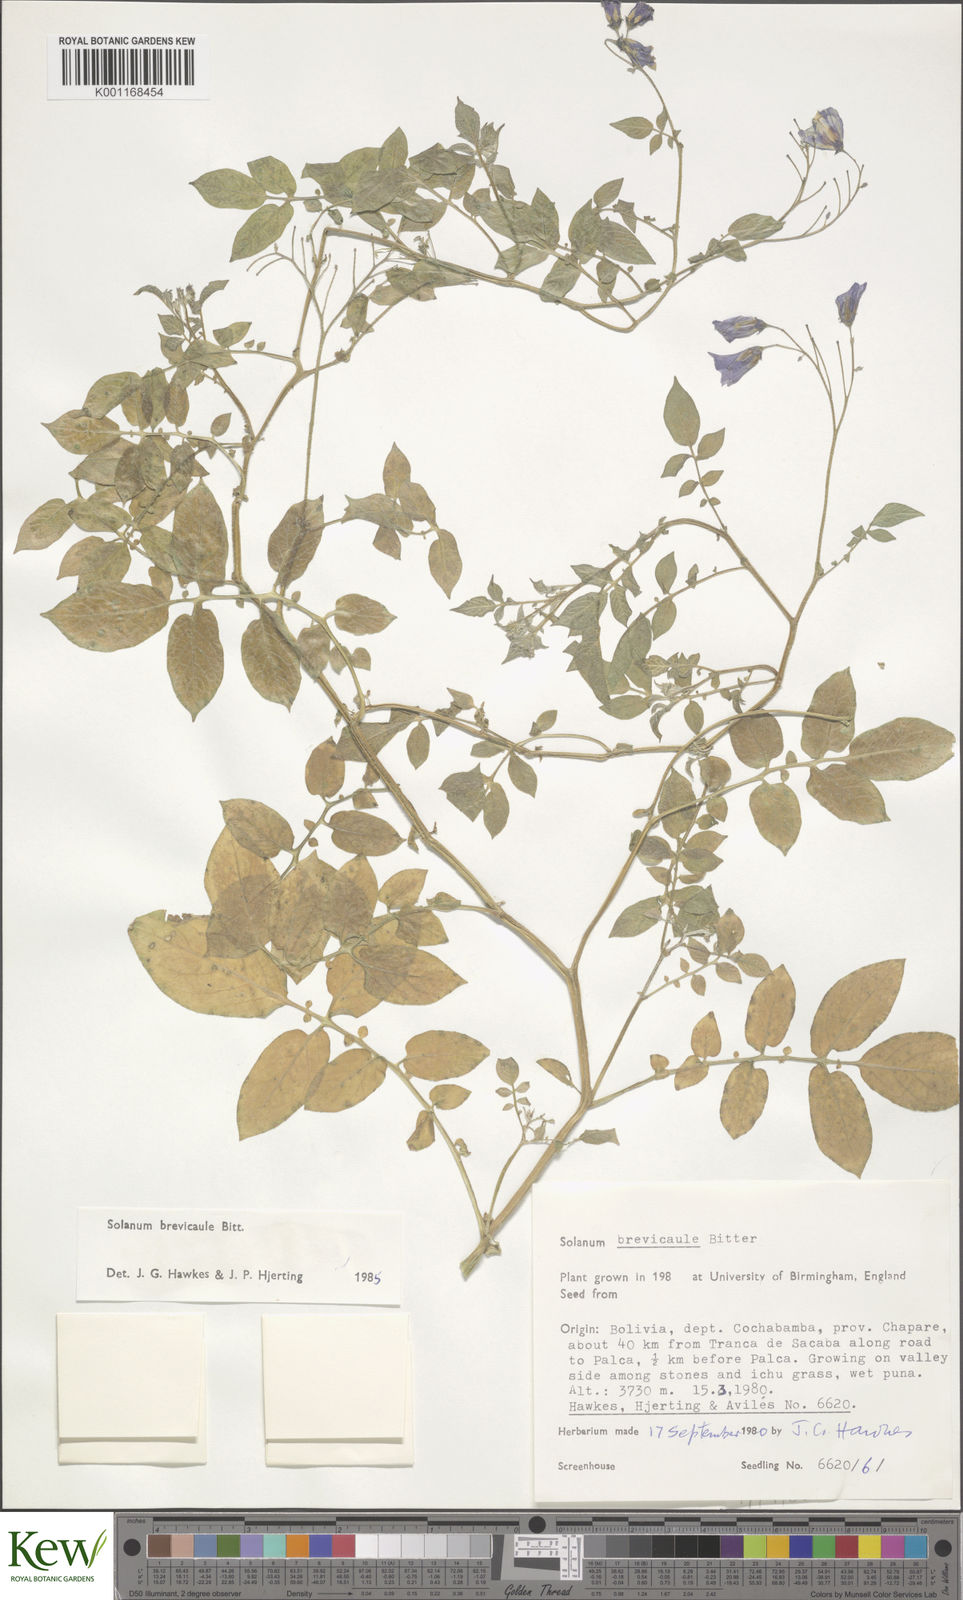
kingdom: Plantae
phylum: Tracheophyta
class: Magnoliopsida
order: Solanales
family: Solanaceae
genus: Solanum
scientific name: Solanum brevicaule
